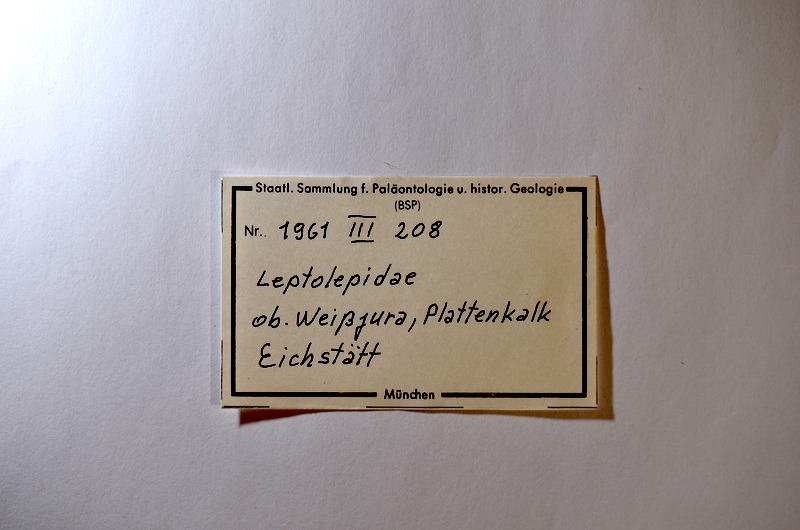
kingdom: Animalia
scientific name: Animalia
